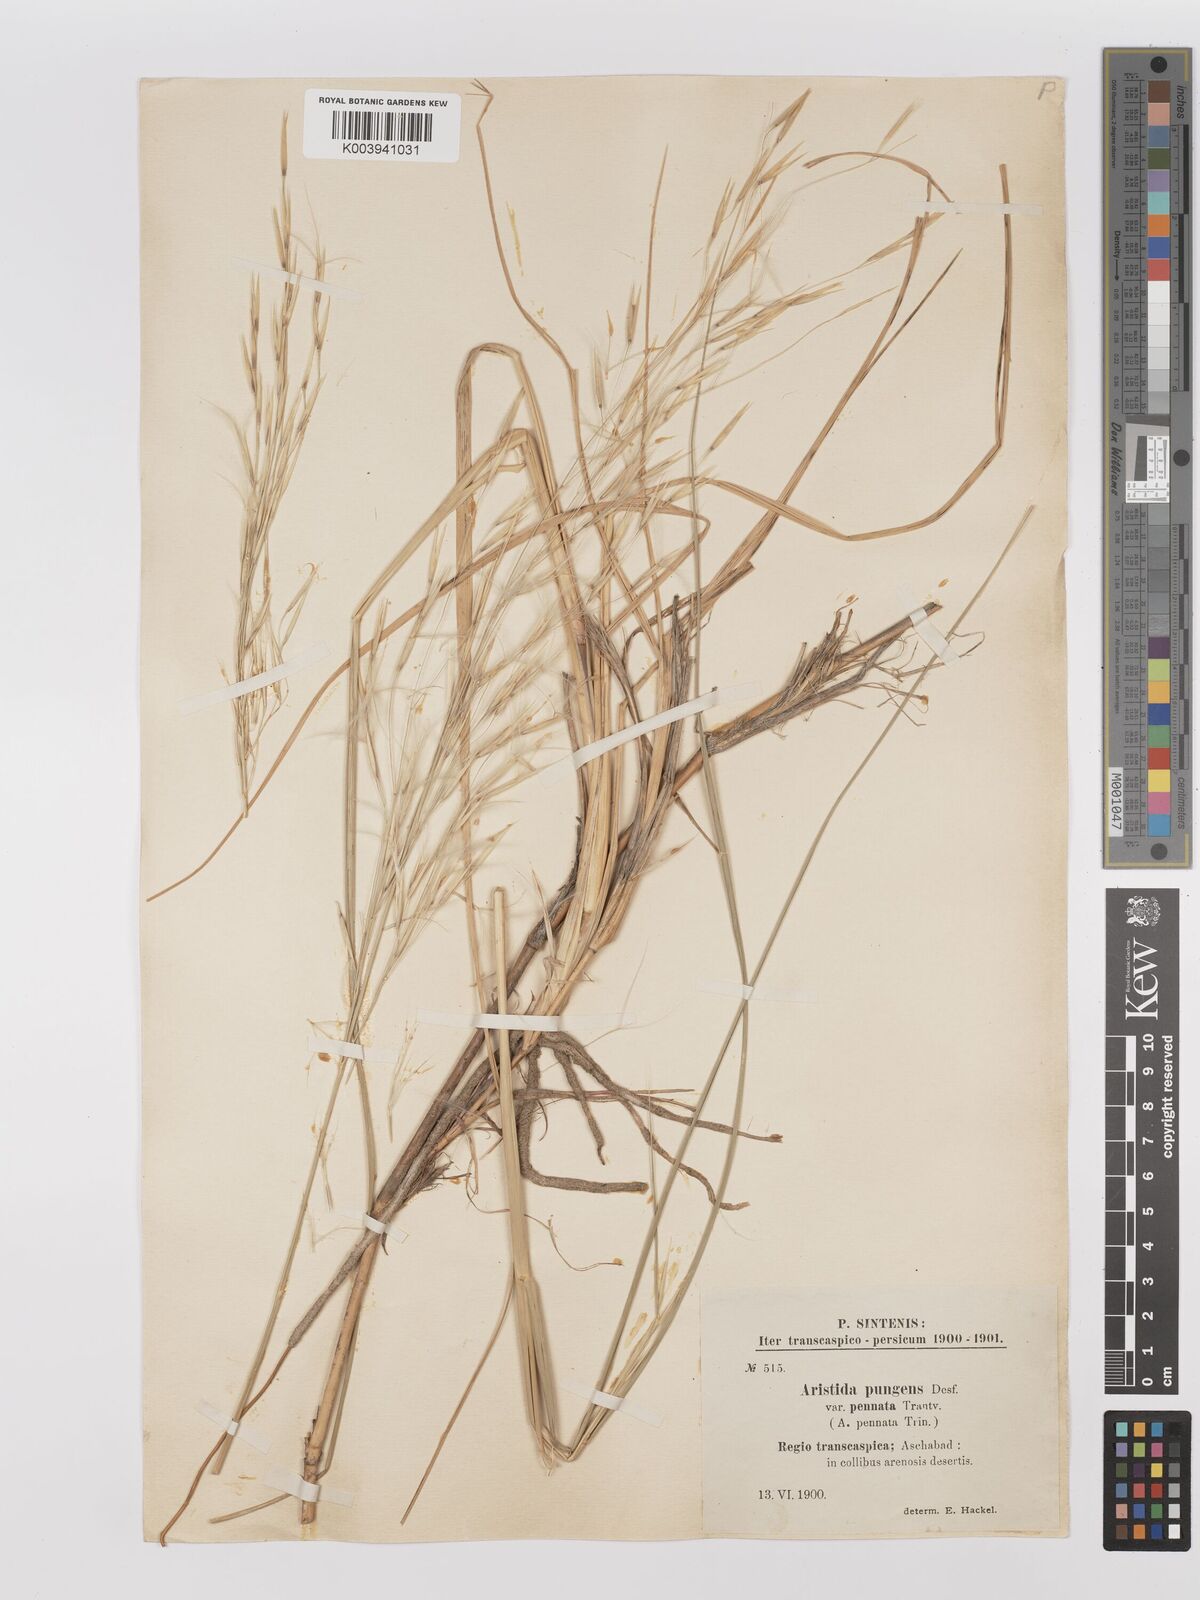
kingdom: Plantae
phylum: Tracheophyta
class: Liliopsida
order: Poales
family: Poaceae
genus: Stipagrostis
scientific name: Stipagrostis pungens
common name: Three-awn grass
